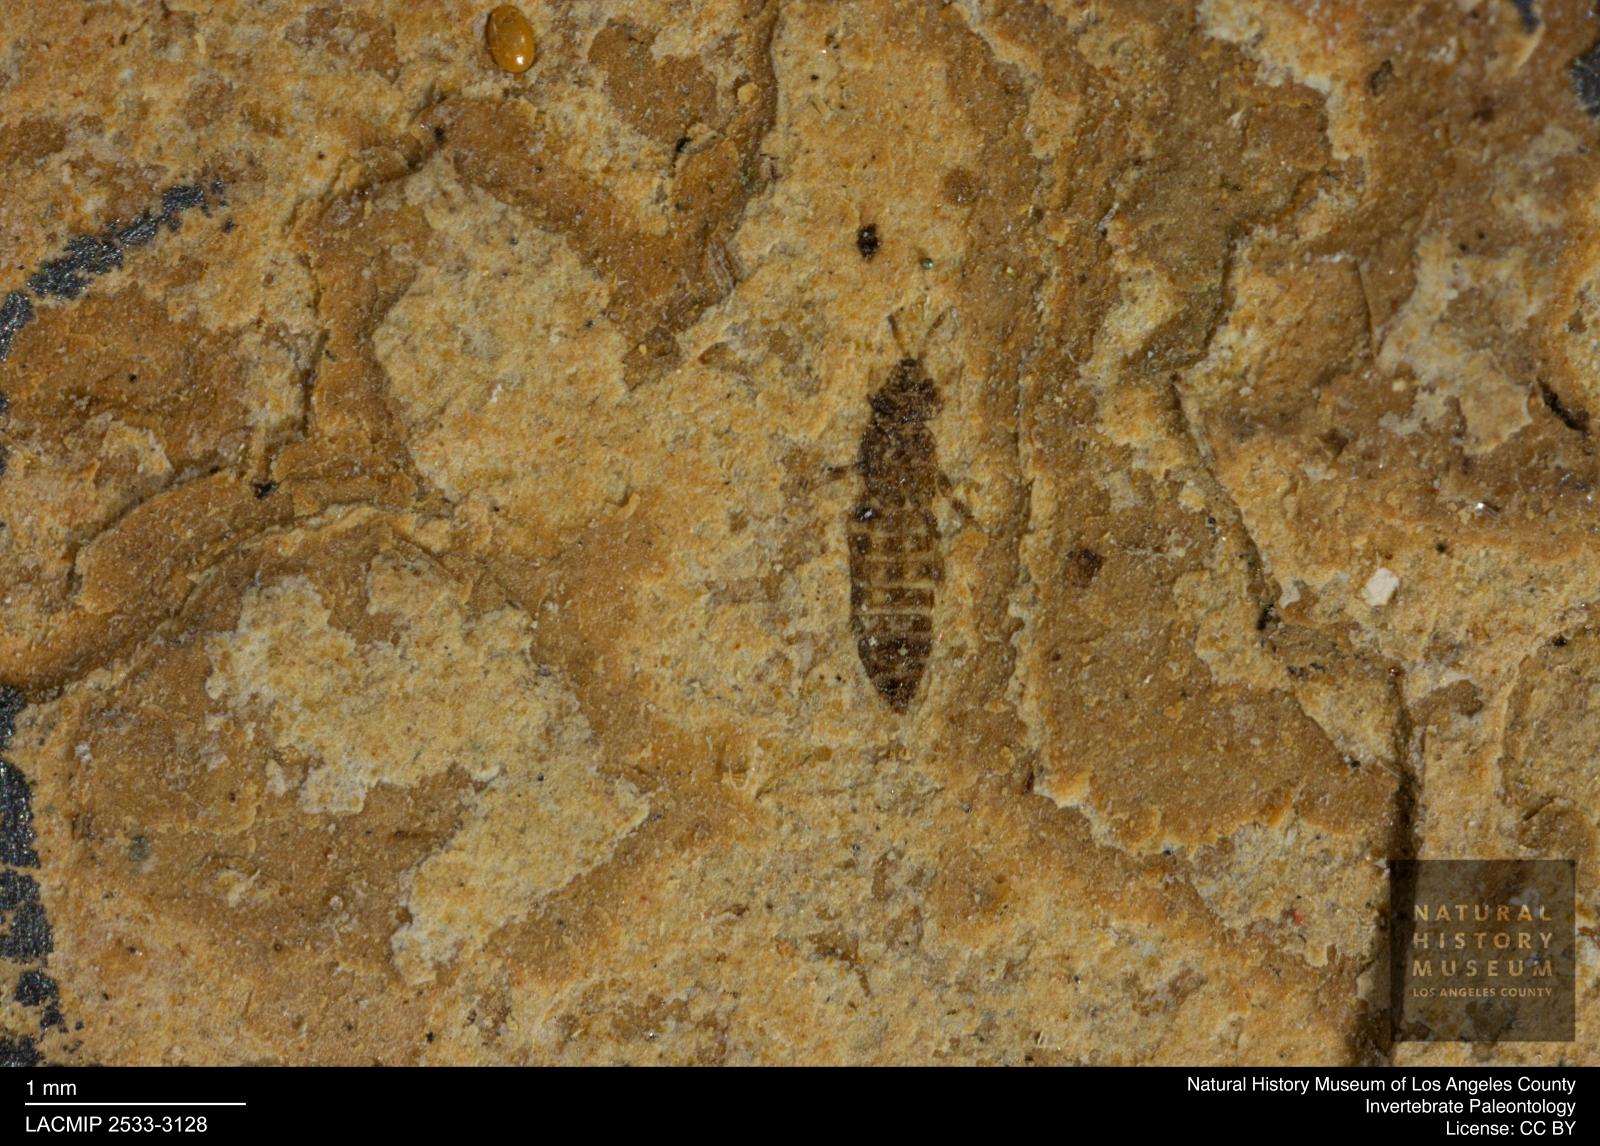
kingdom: Animalia
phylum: Arthropoda
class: Insecta
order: Thysanoptera
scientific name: Thysanoptera
